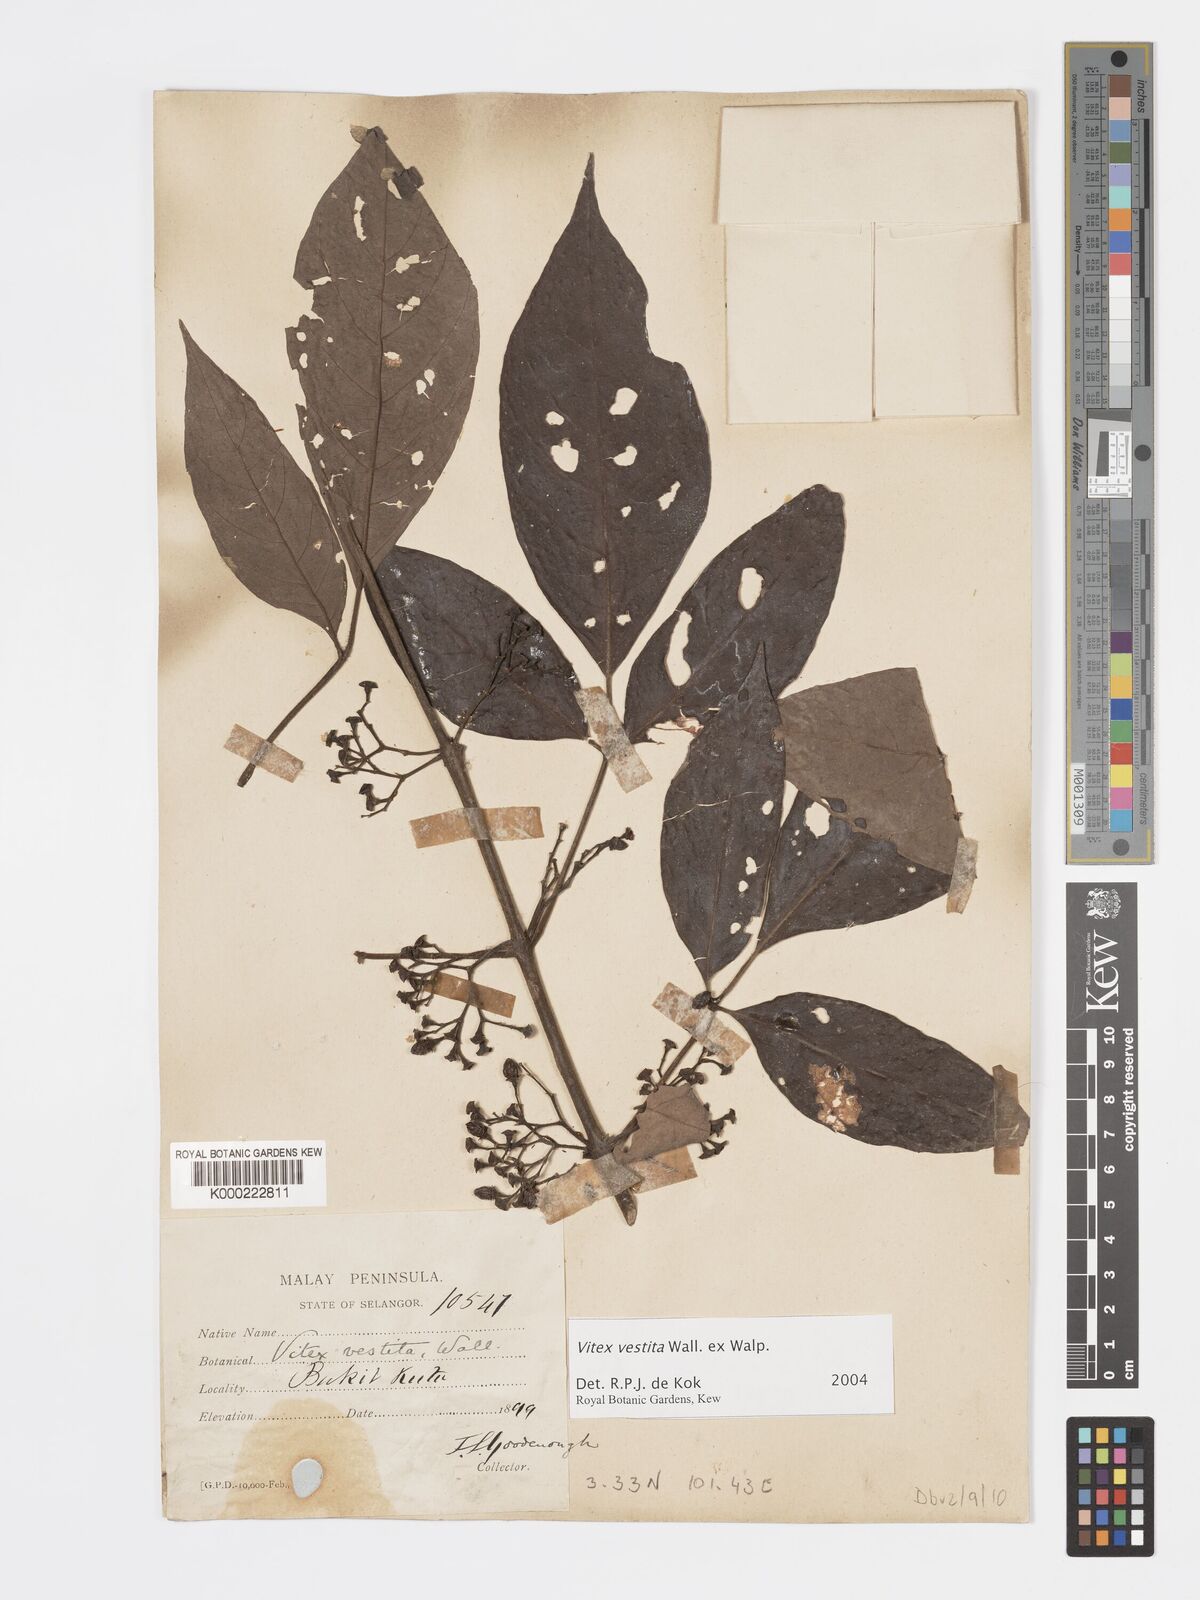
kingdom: Plantae
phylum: Tracheophyta
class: Magnoliopsida
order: Lamiales
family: Lamiaceae
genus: Vitex
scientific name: Vitex vestita
